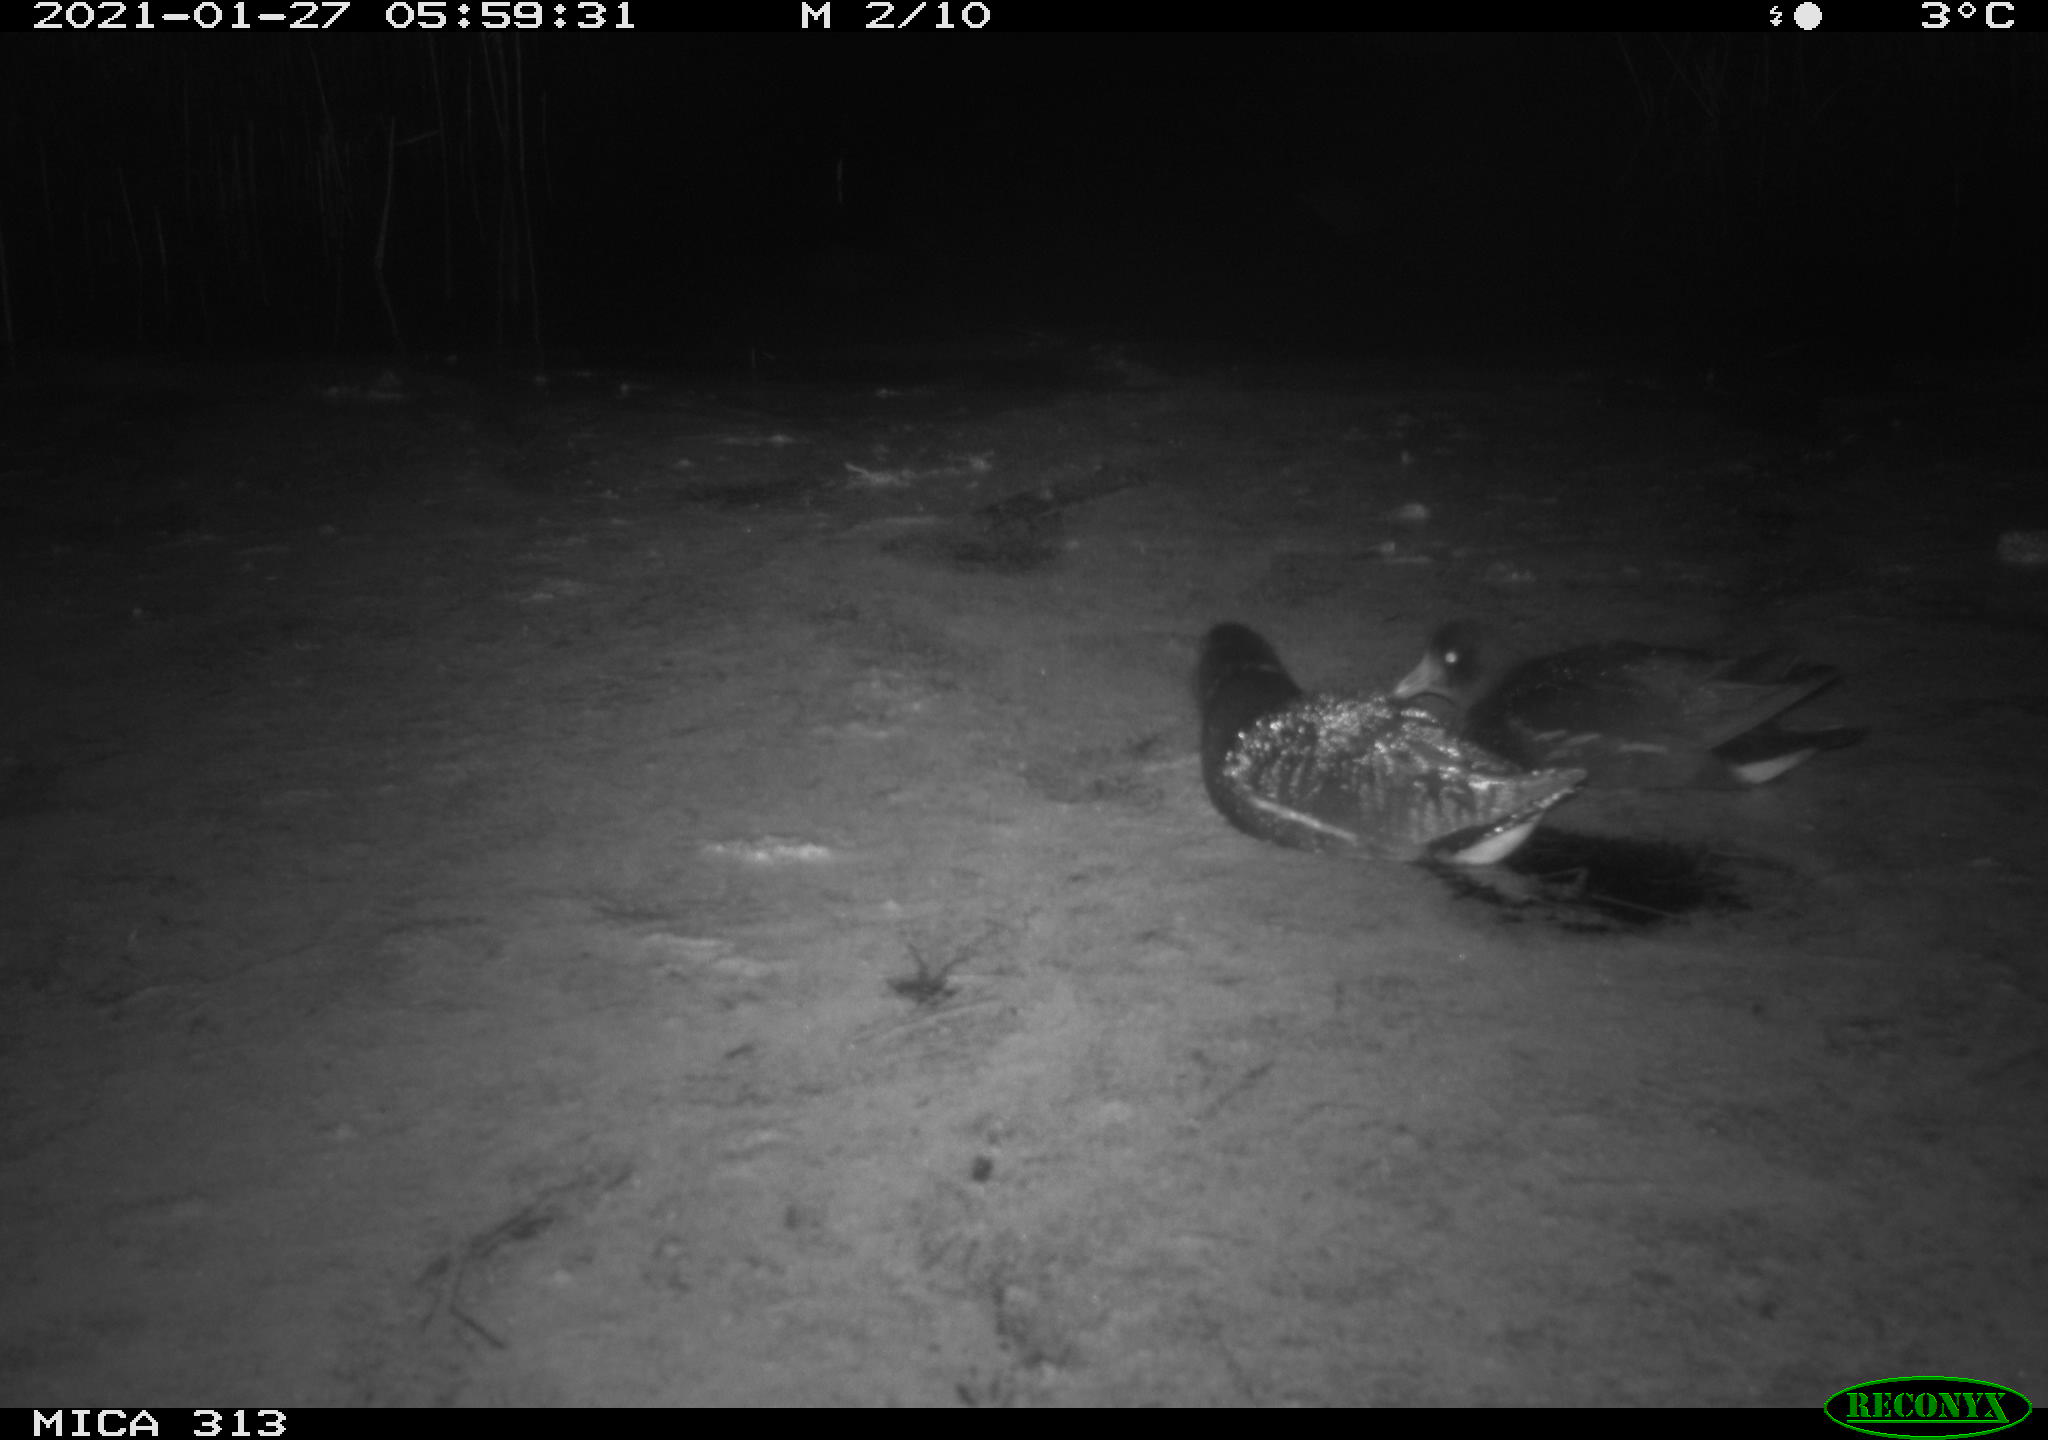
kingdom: Animalia
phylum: Chordata
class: Aves
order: Anseriformes
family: Anatidae
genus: Anas
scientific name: Anas platyrhynchos
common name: Mallard
